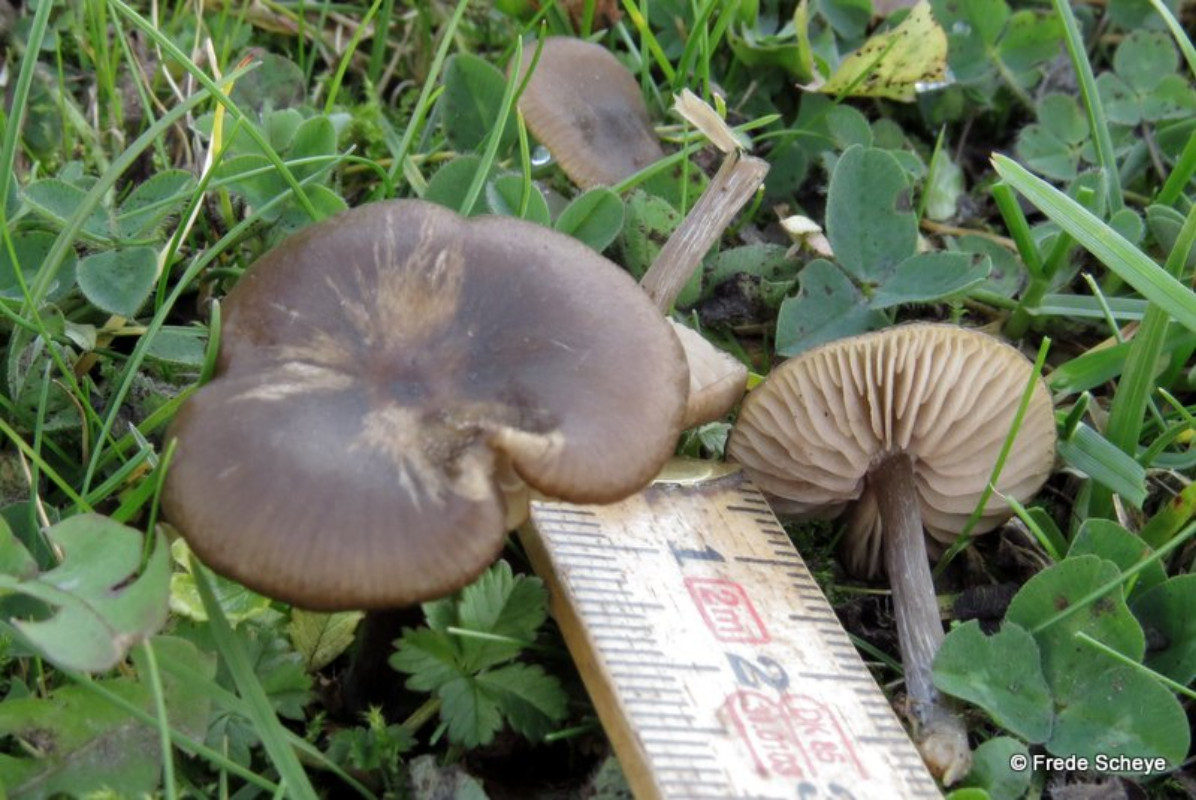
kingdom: Fungi
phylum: Basidiomycota
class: Agaricomycetes
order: Agaricales
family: Entolomataceae
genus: Entoloma
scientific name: Entoloma sericeum
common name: silkeglinsende rødblad
